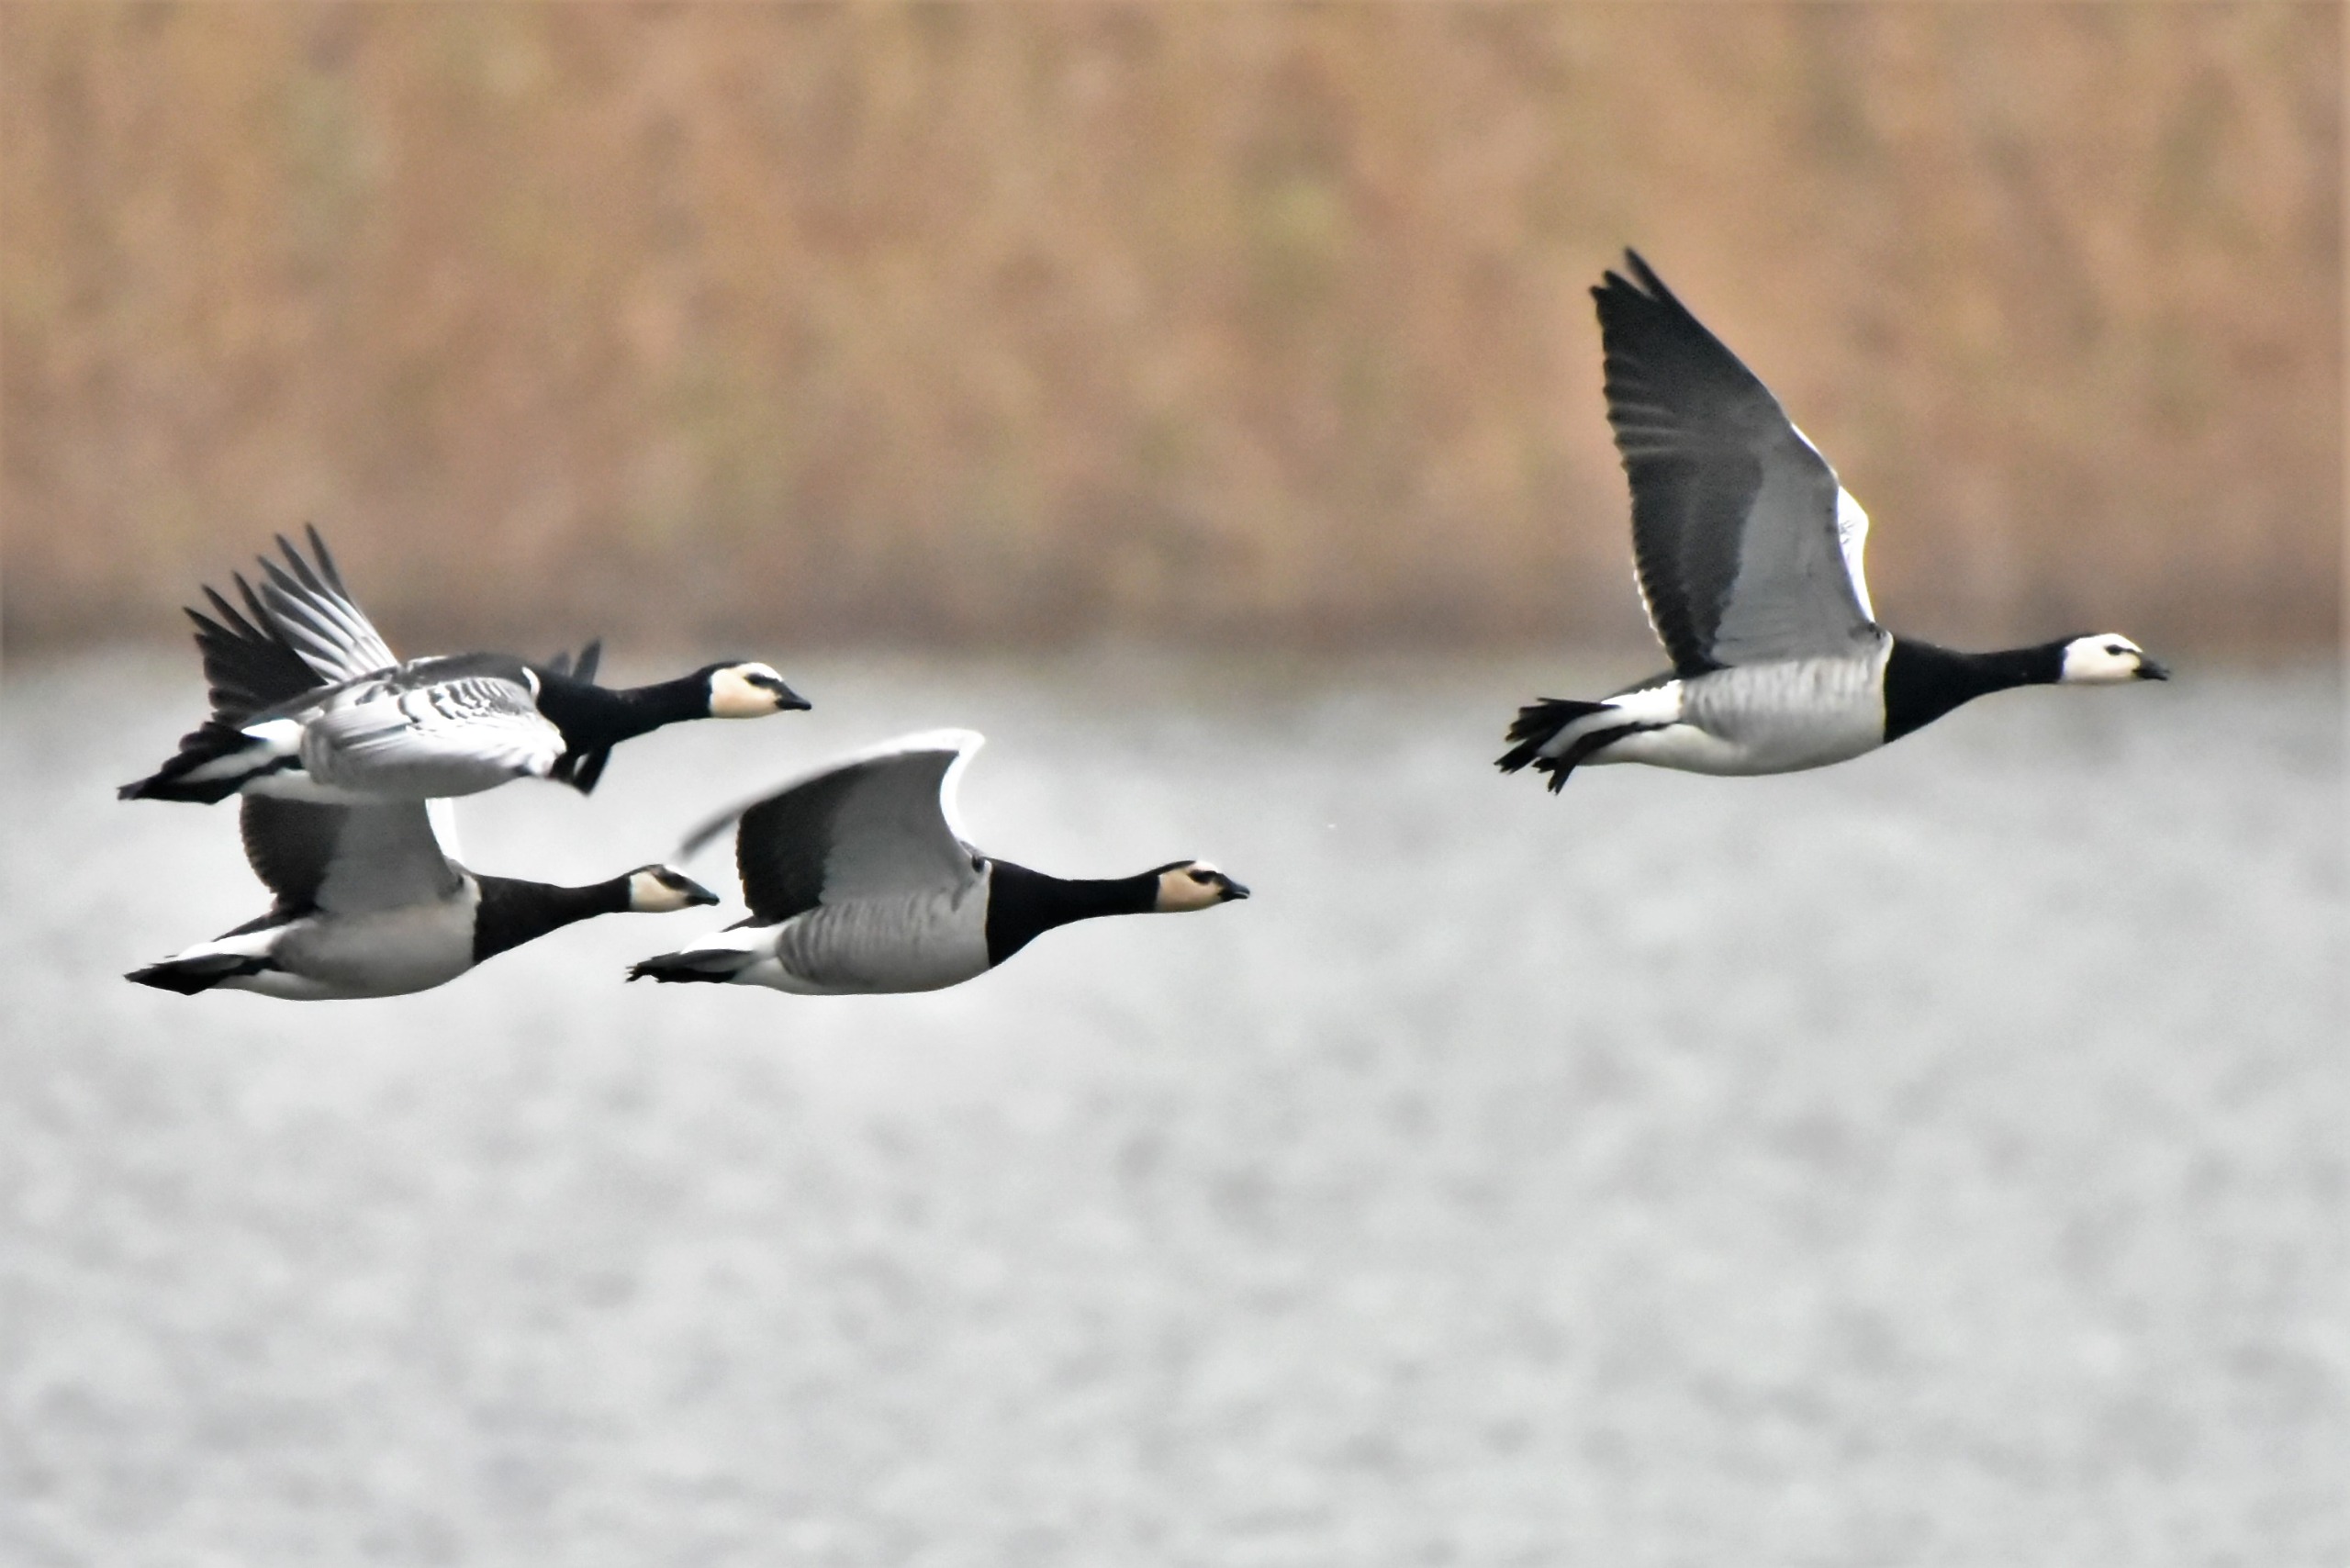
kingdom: Animalia
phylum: Chordata
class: Aves
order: Anseriformes
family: Anatidae
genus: Branta
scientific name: Branta leucopsis
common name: Bramgås
